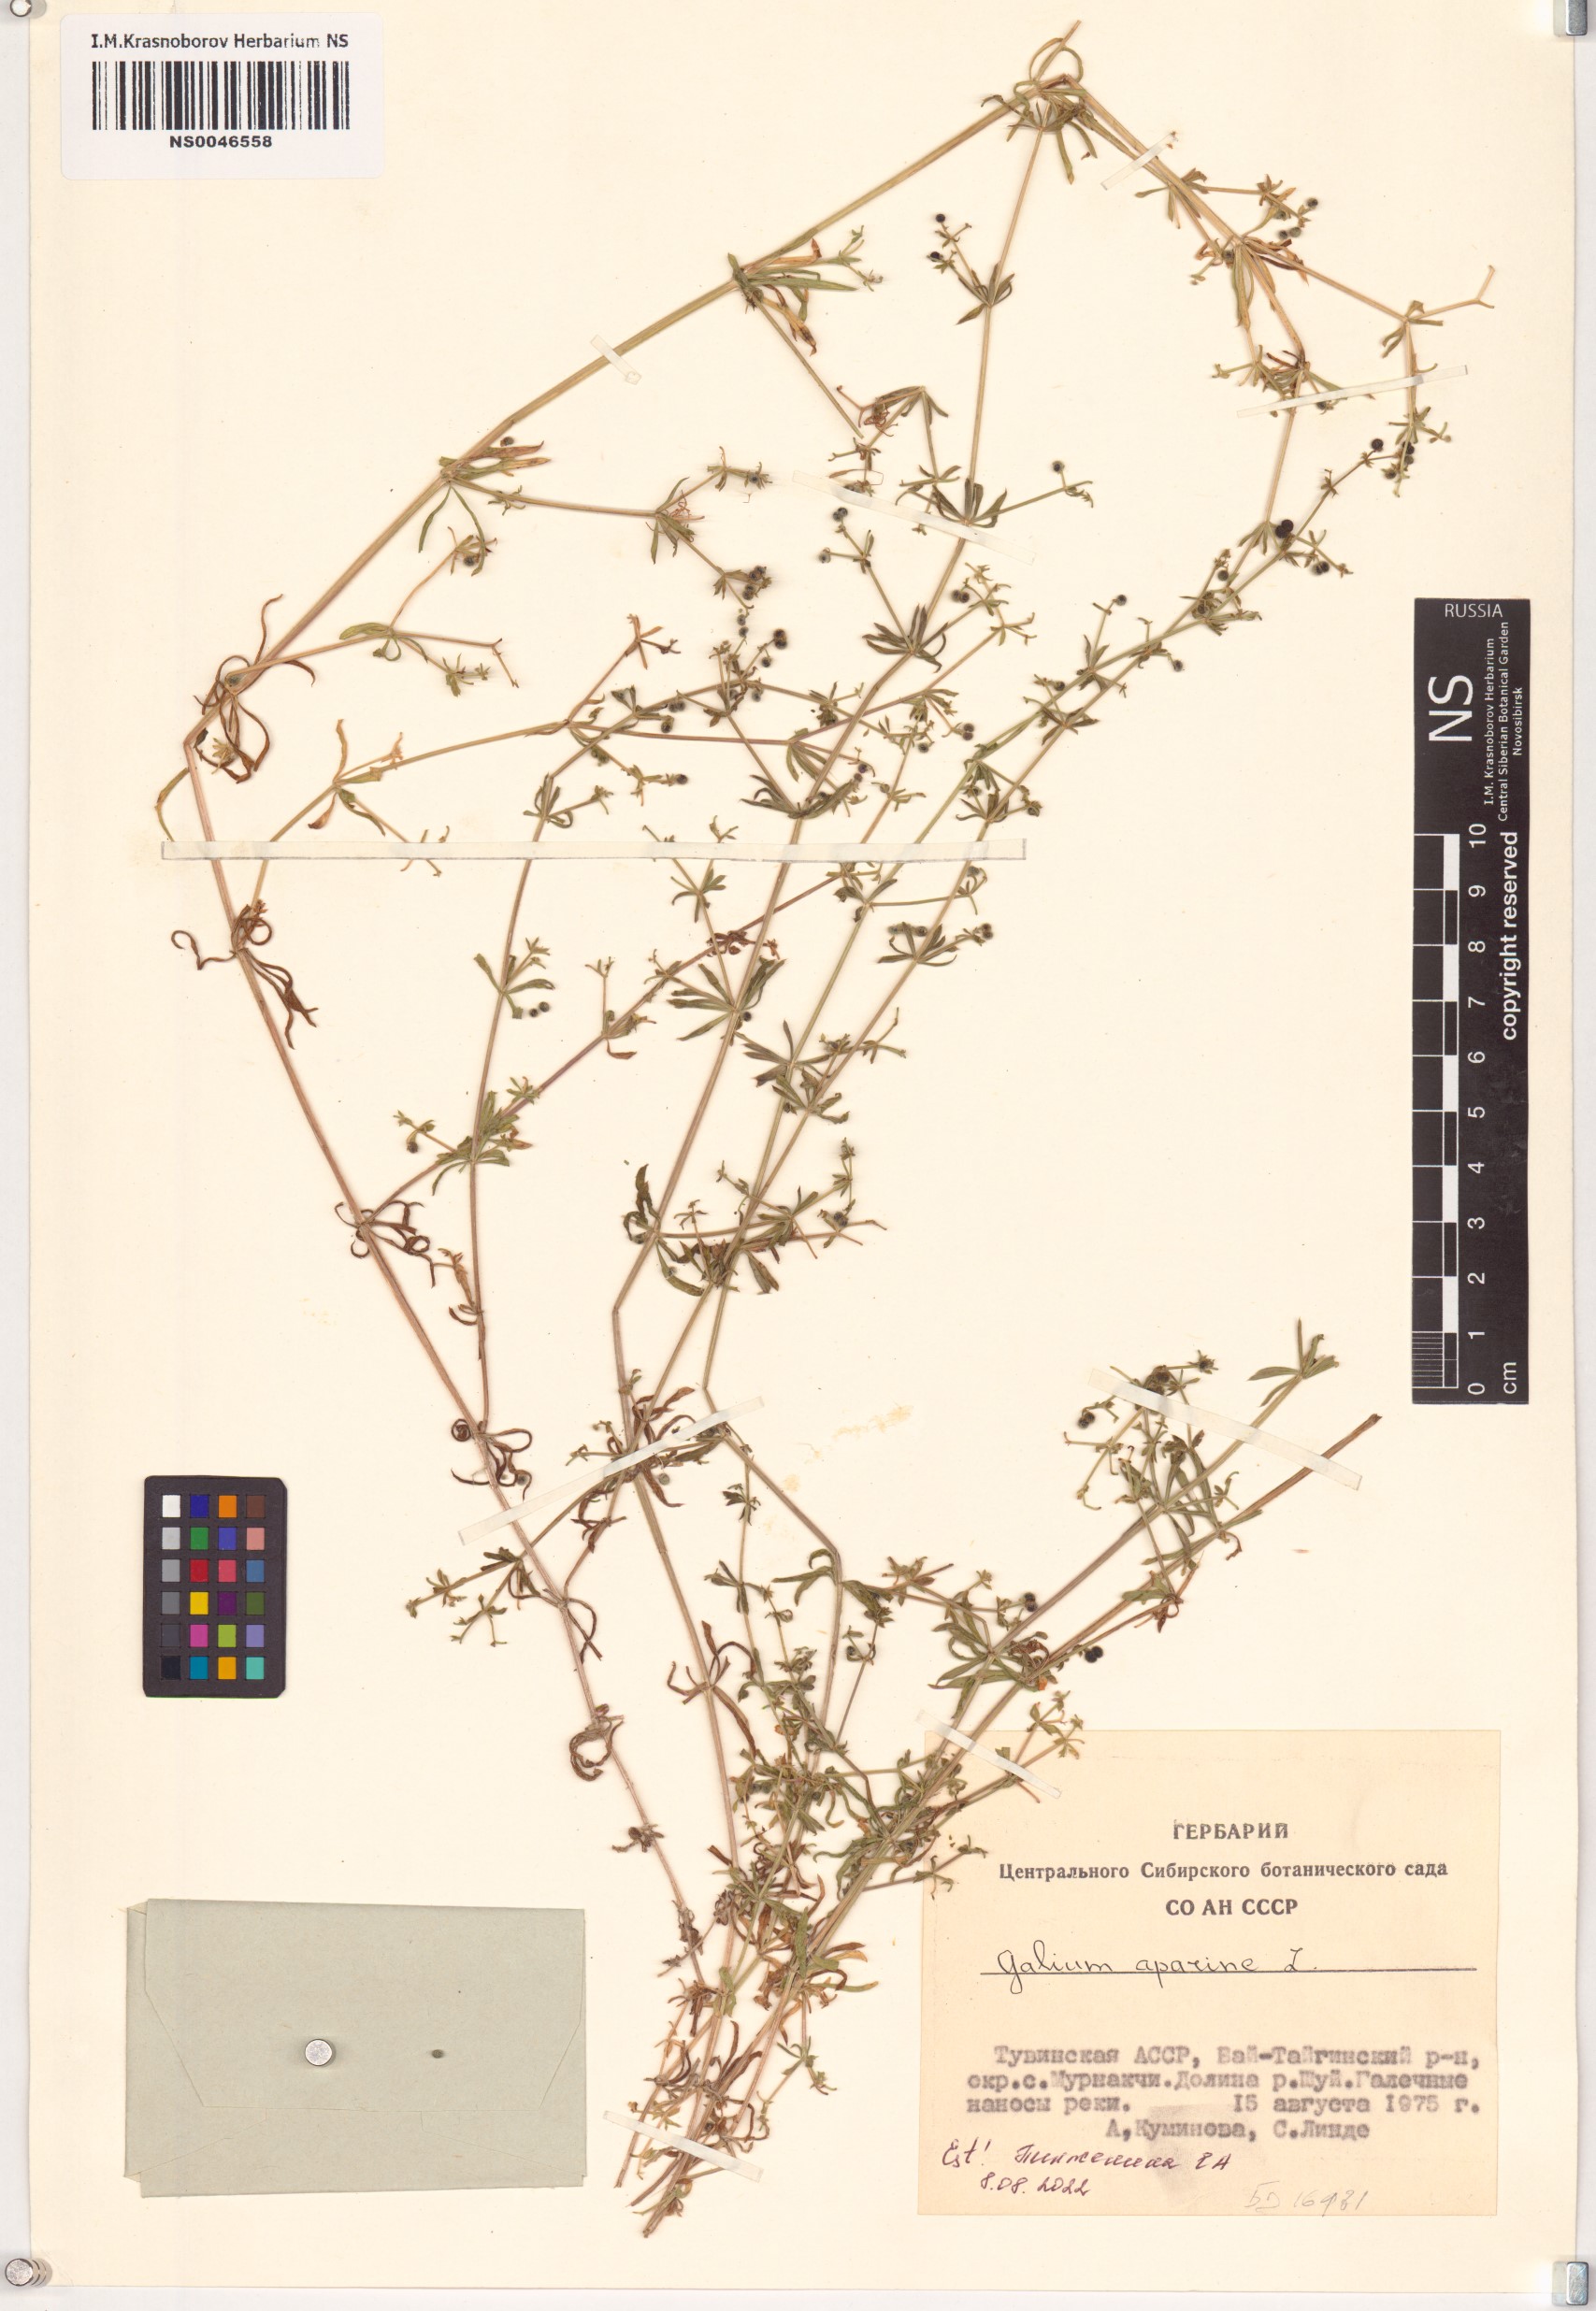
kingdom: Plantae
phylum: Tracheophyta
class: Magnoliopsida
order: Gentianales
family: Rubiaceae
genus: Galium
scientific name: Galium aparine
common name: Cleavers
